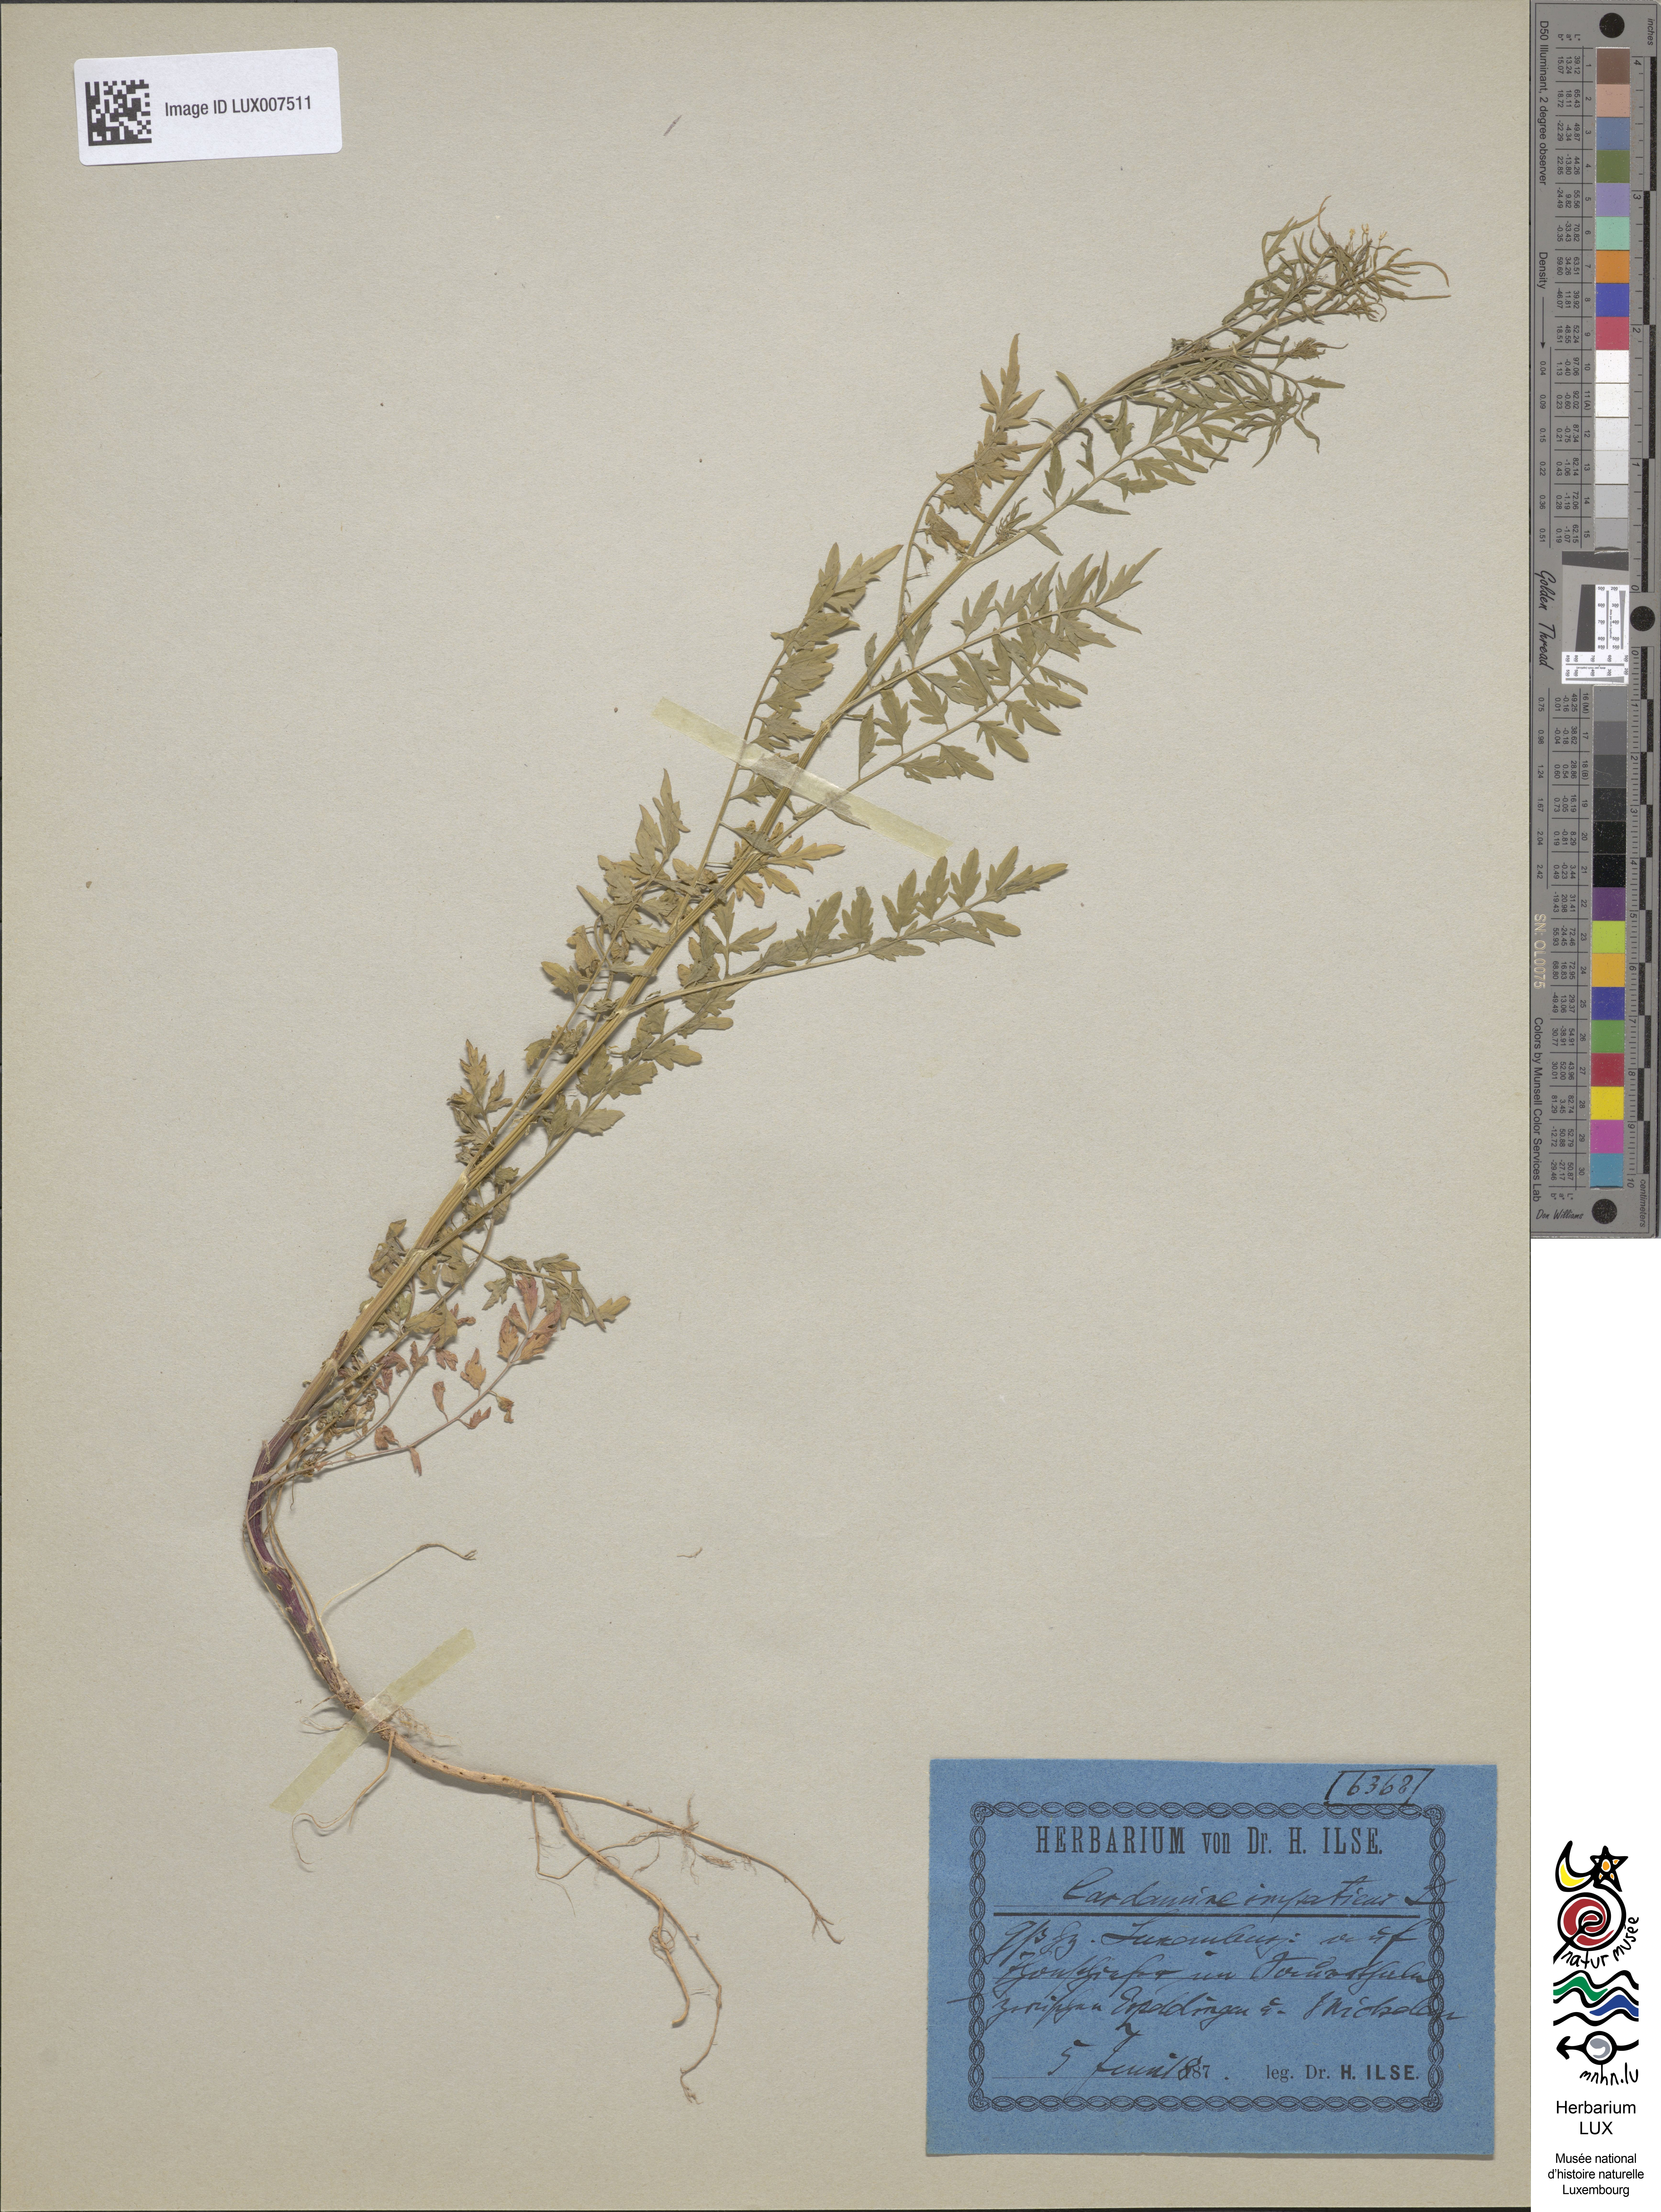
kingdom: Plantae
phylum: Tracheophyta
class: Magnoliopsida
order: Brassicales
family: Brassicaceae
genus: Cardamine
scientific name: Cardamine impatiens
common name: Narrow-leaved bitter-cress
